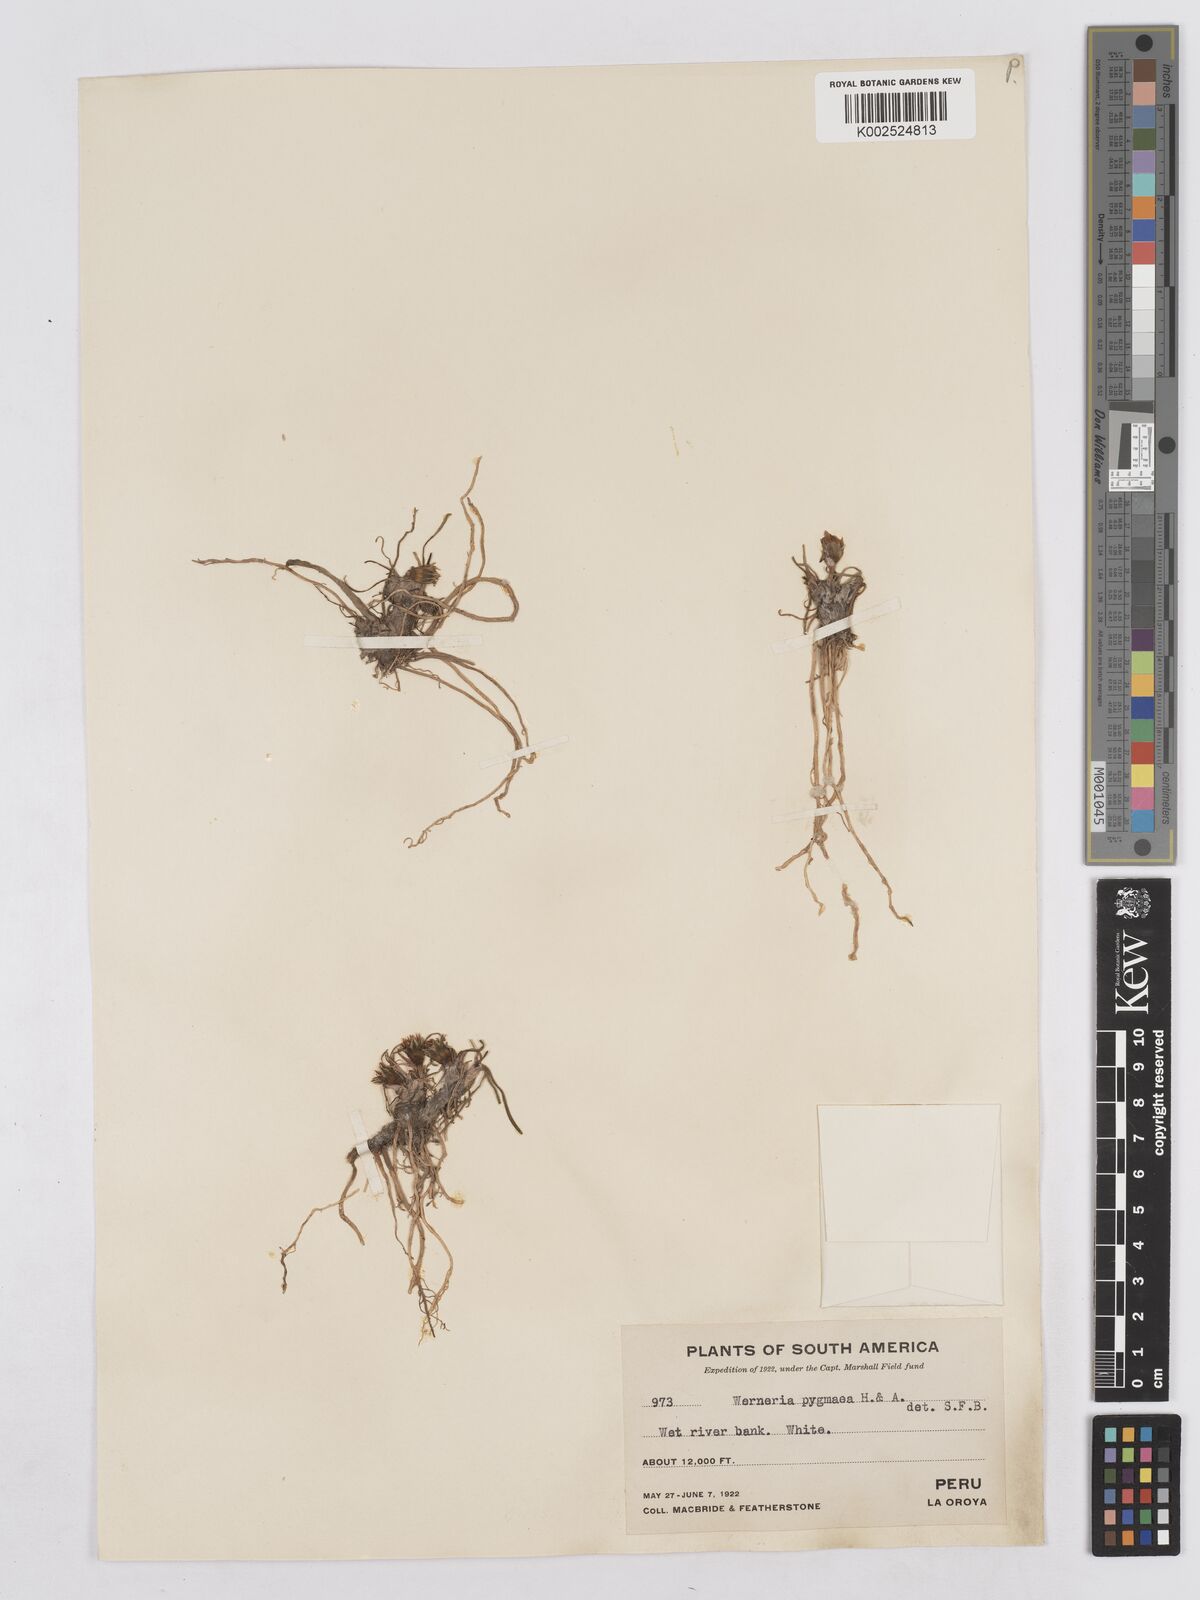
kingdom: Plantae
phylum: Tracheophyta
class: Magnoliopsida
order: Asterales
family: Asteraceae
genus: Rockhausenia
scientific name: Rockhausenia pygmaea
